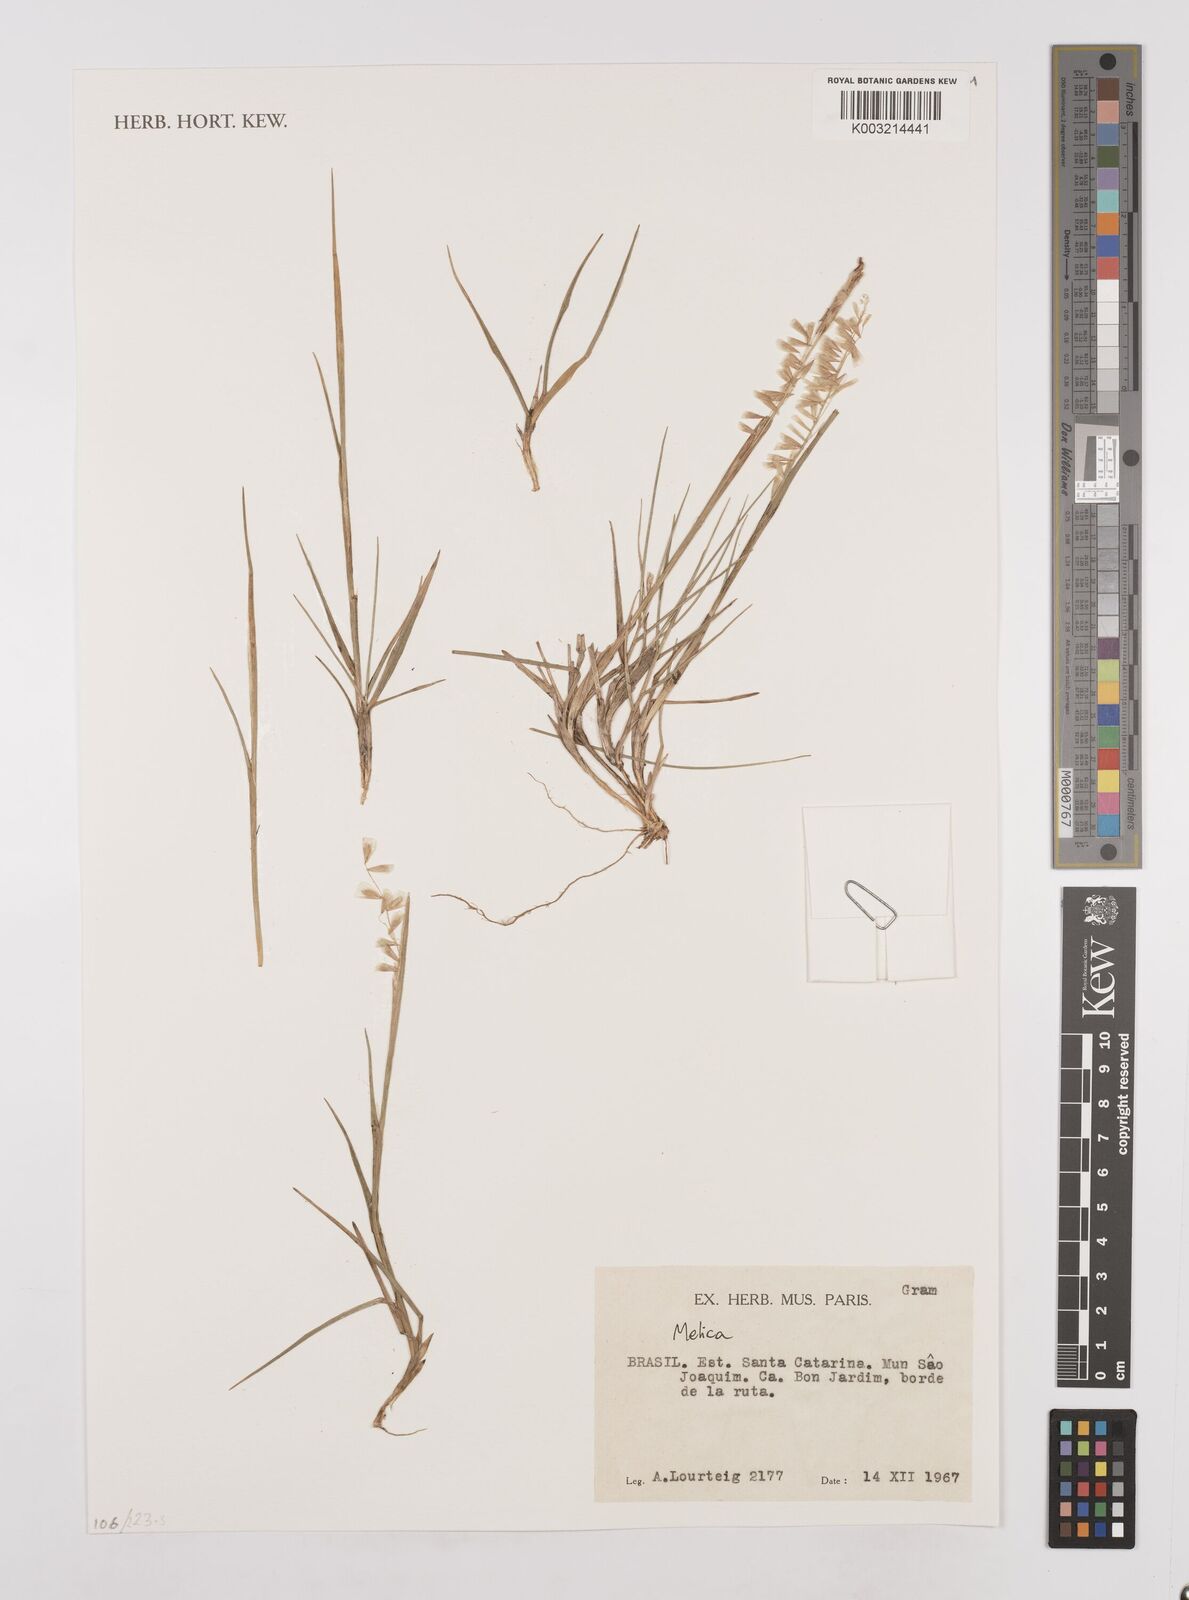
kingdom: Plantae
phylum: Tracheophyta
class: Liliopsida
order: Poales
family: Poaceae
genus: Melica
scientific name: Melica
